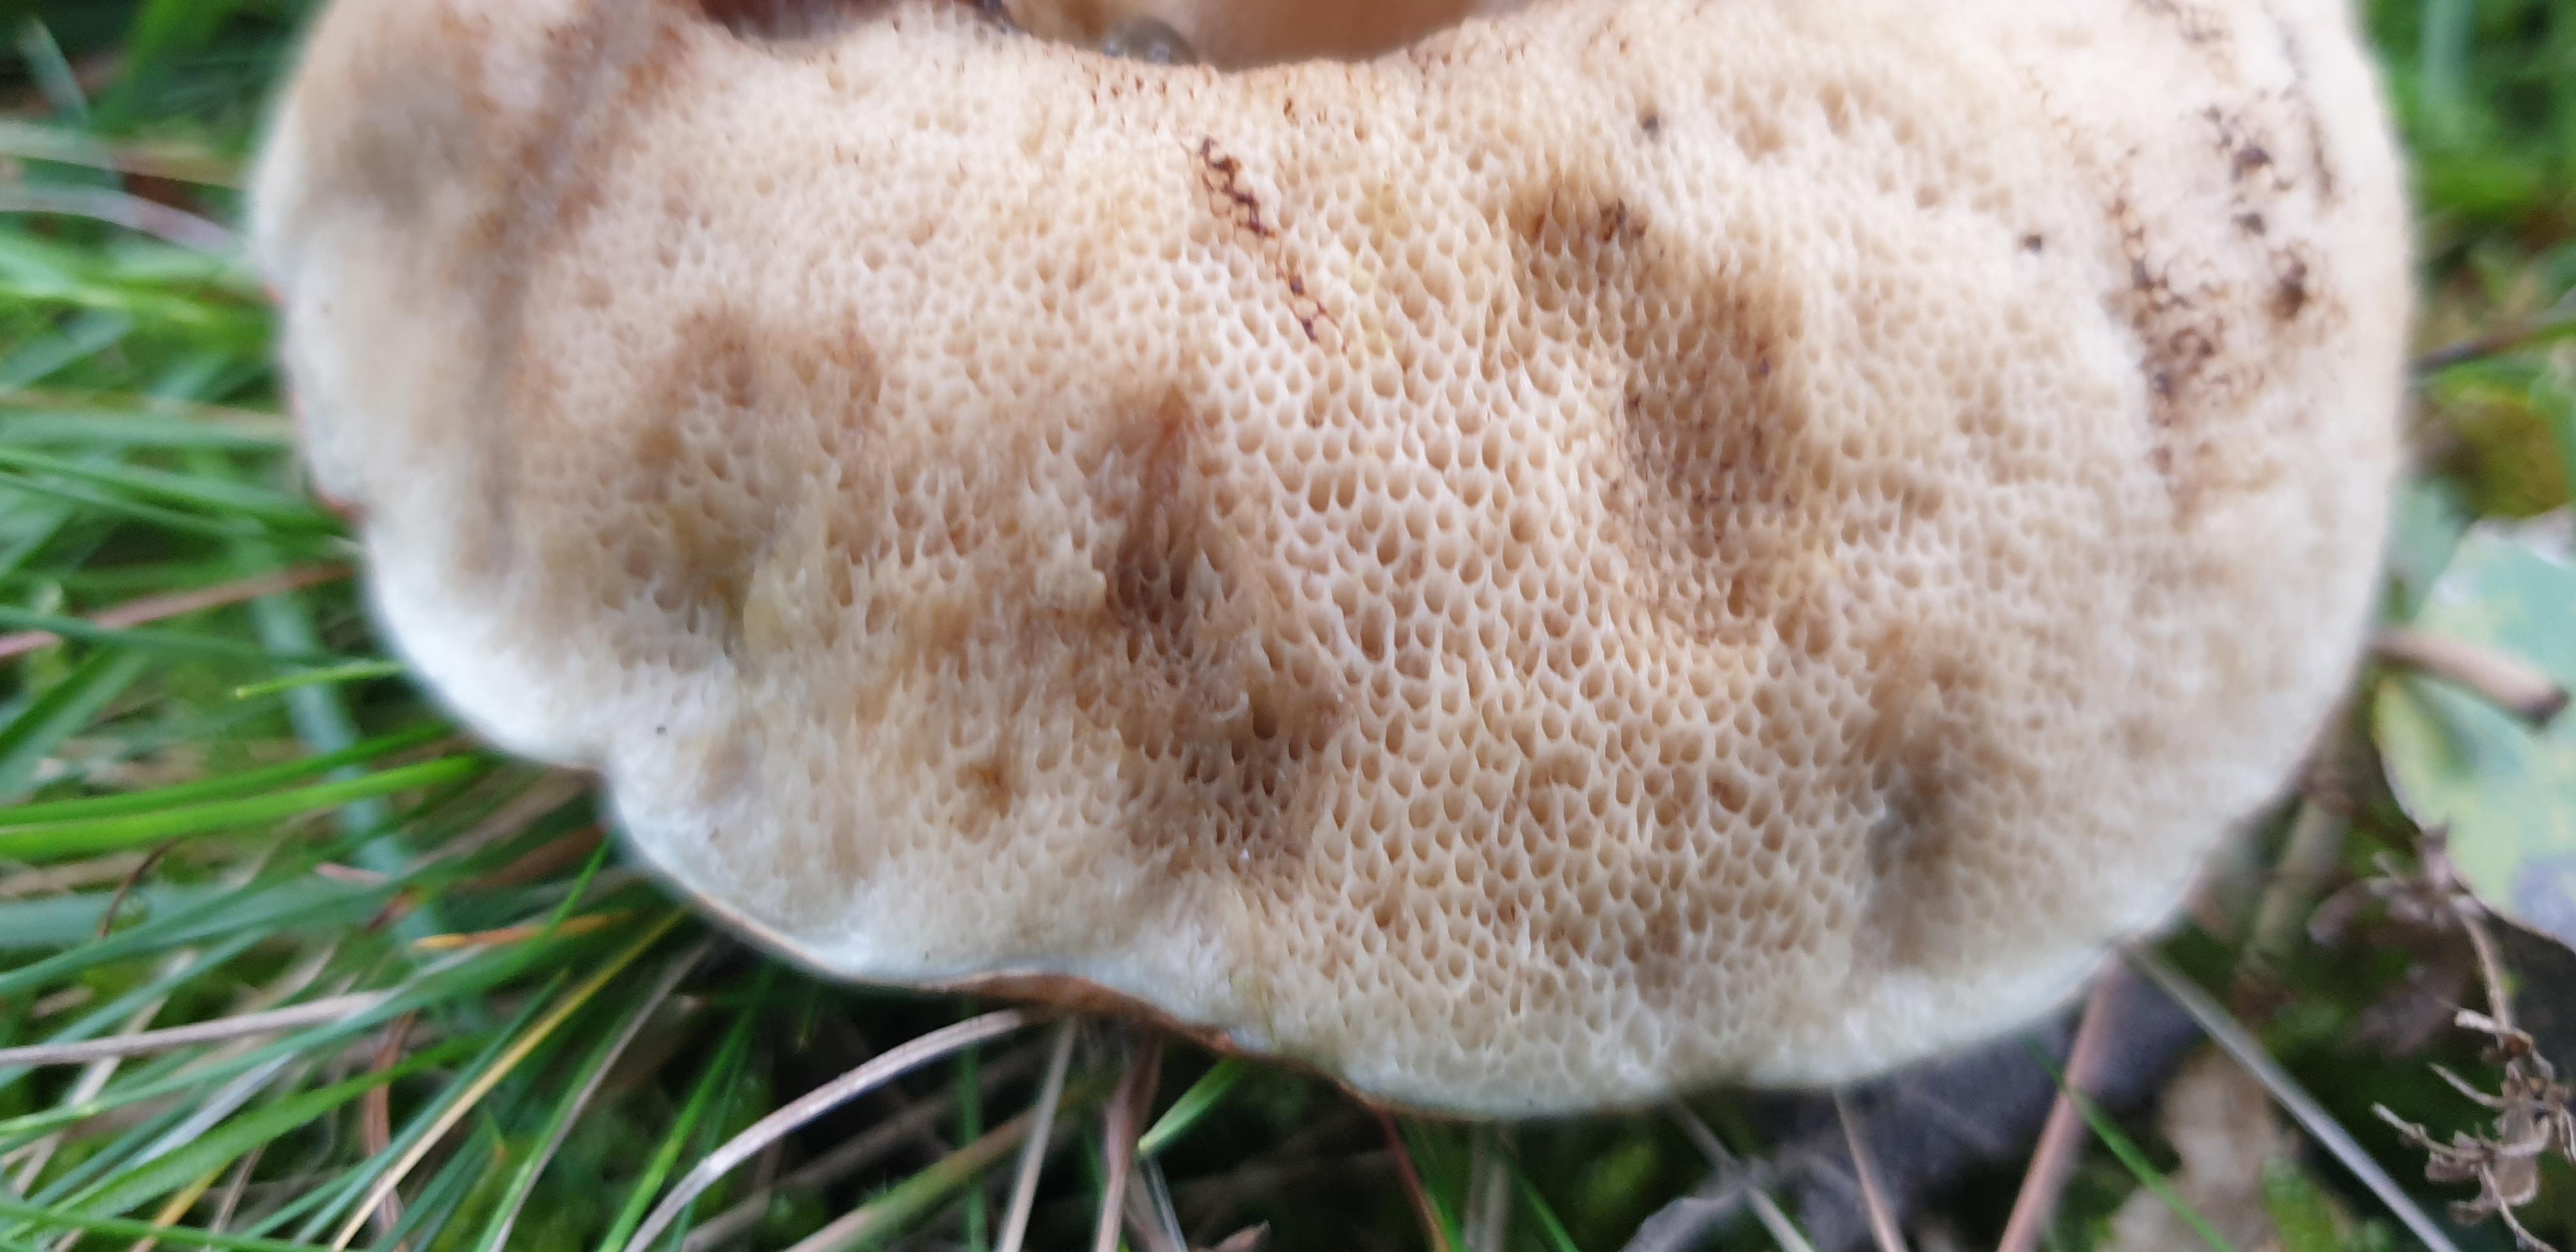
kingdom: Fungi
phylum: Basidiomycota
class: Agaricomycetes
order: Boletales
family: Boletaceae
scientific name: Boletaceae
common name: rørhatfamilien
